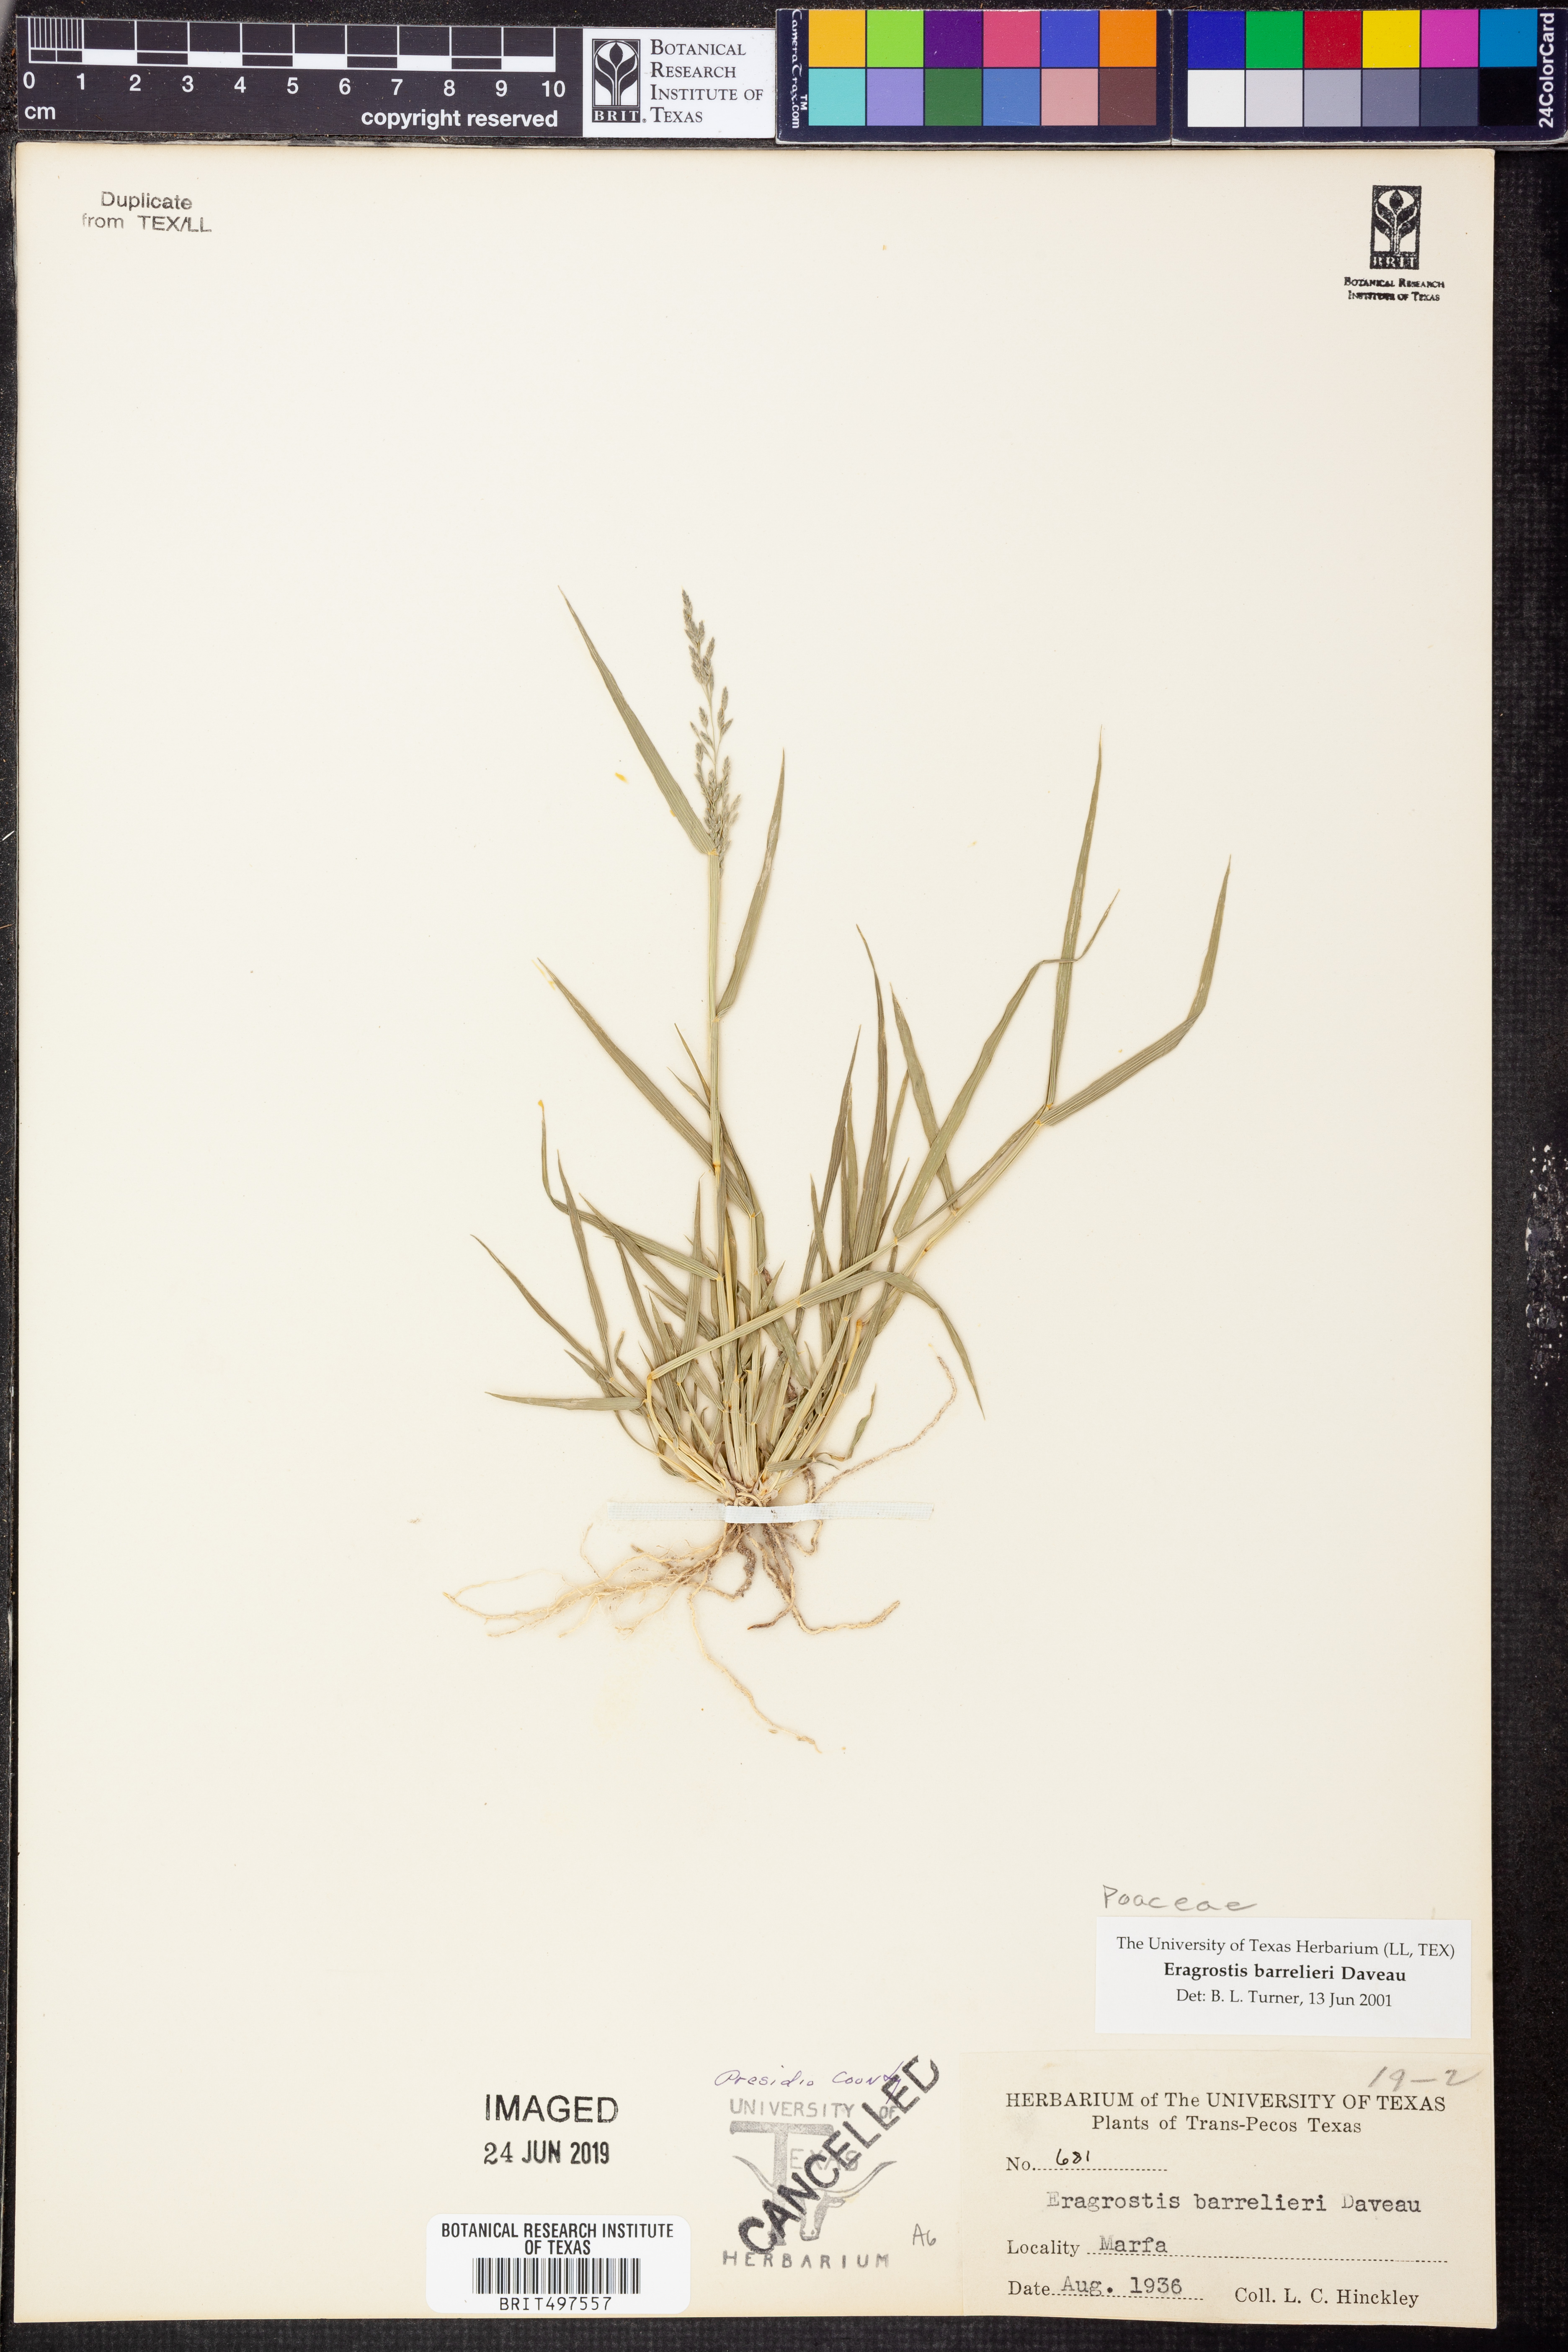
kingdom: Plantae
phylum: Tracheophyta
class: Liliopsida
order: Poales
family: Poaceae
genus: Eragrostis
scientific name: Eragrostis barrelieri
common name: Mediterranean lovegrass
